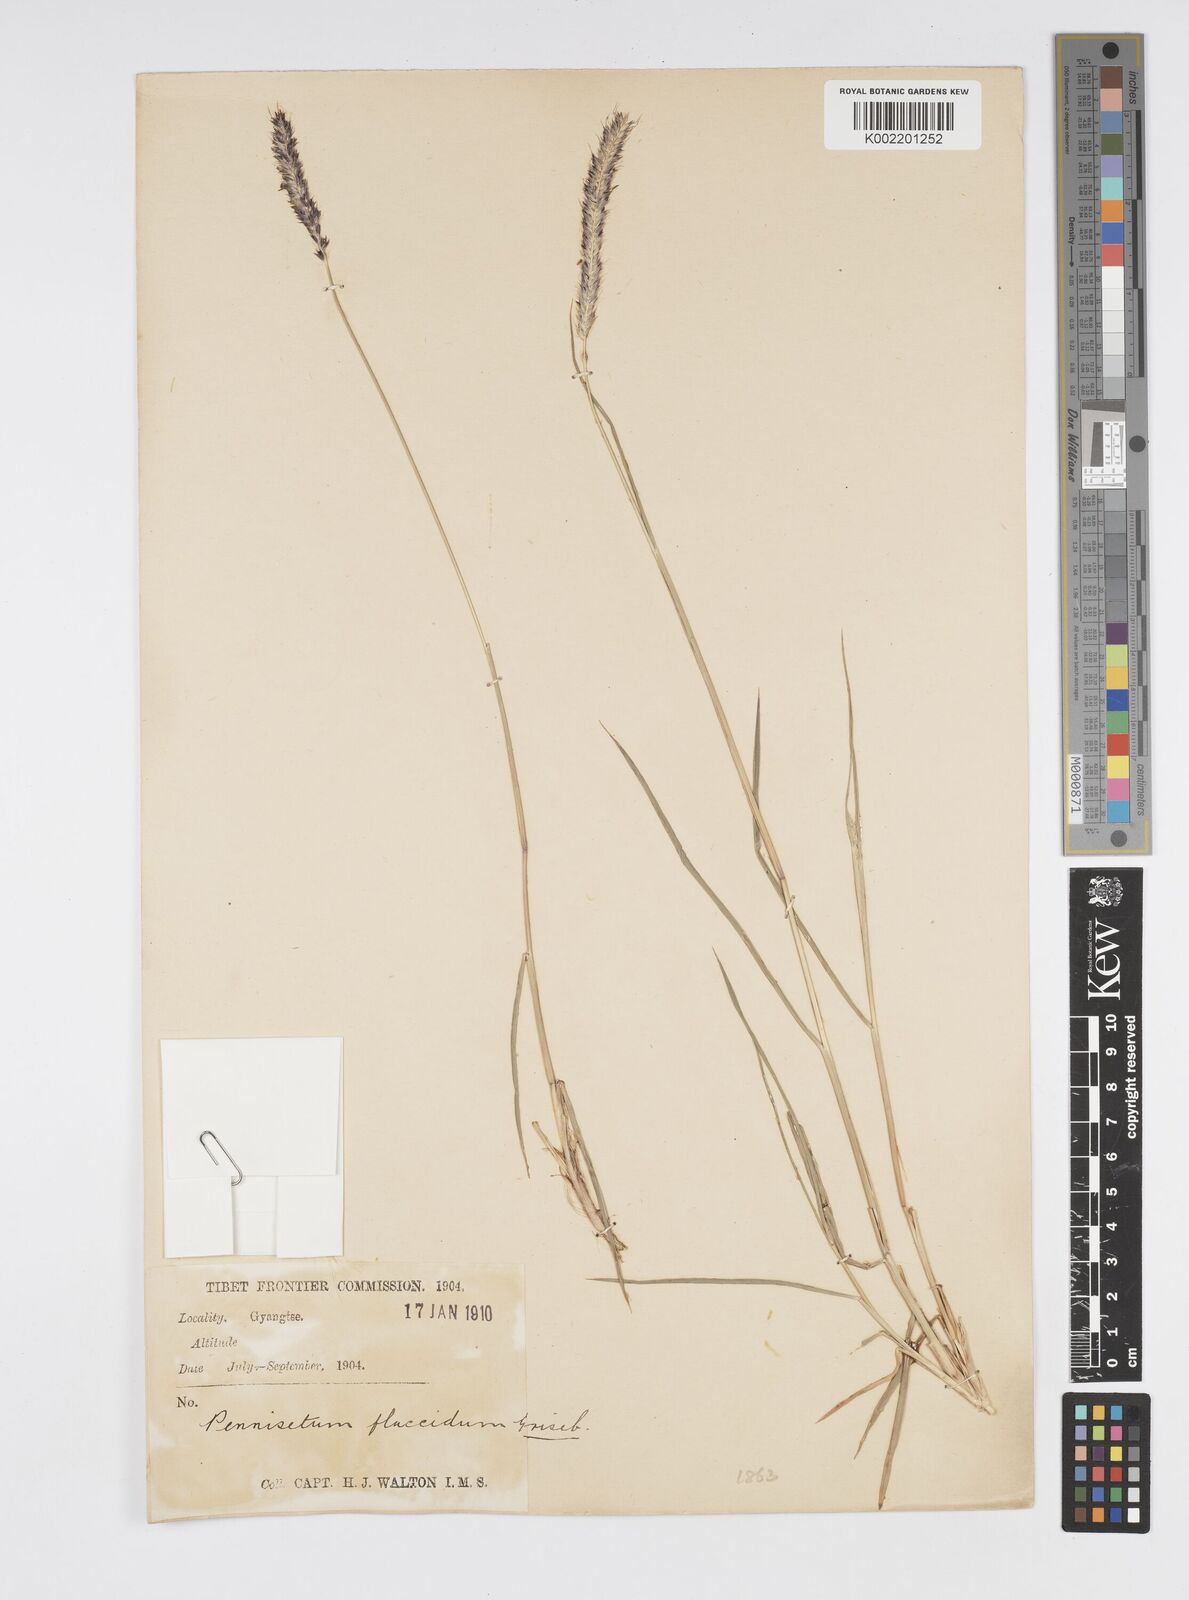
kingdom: Plantae
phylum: Tracheophyta
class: Liliopsida
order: Poales
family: Poaceae
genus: Cenchrus
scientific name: Cenchrus flaccidus
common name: Flaccid grass
